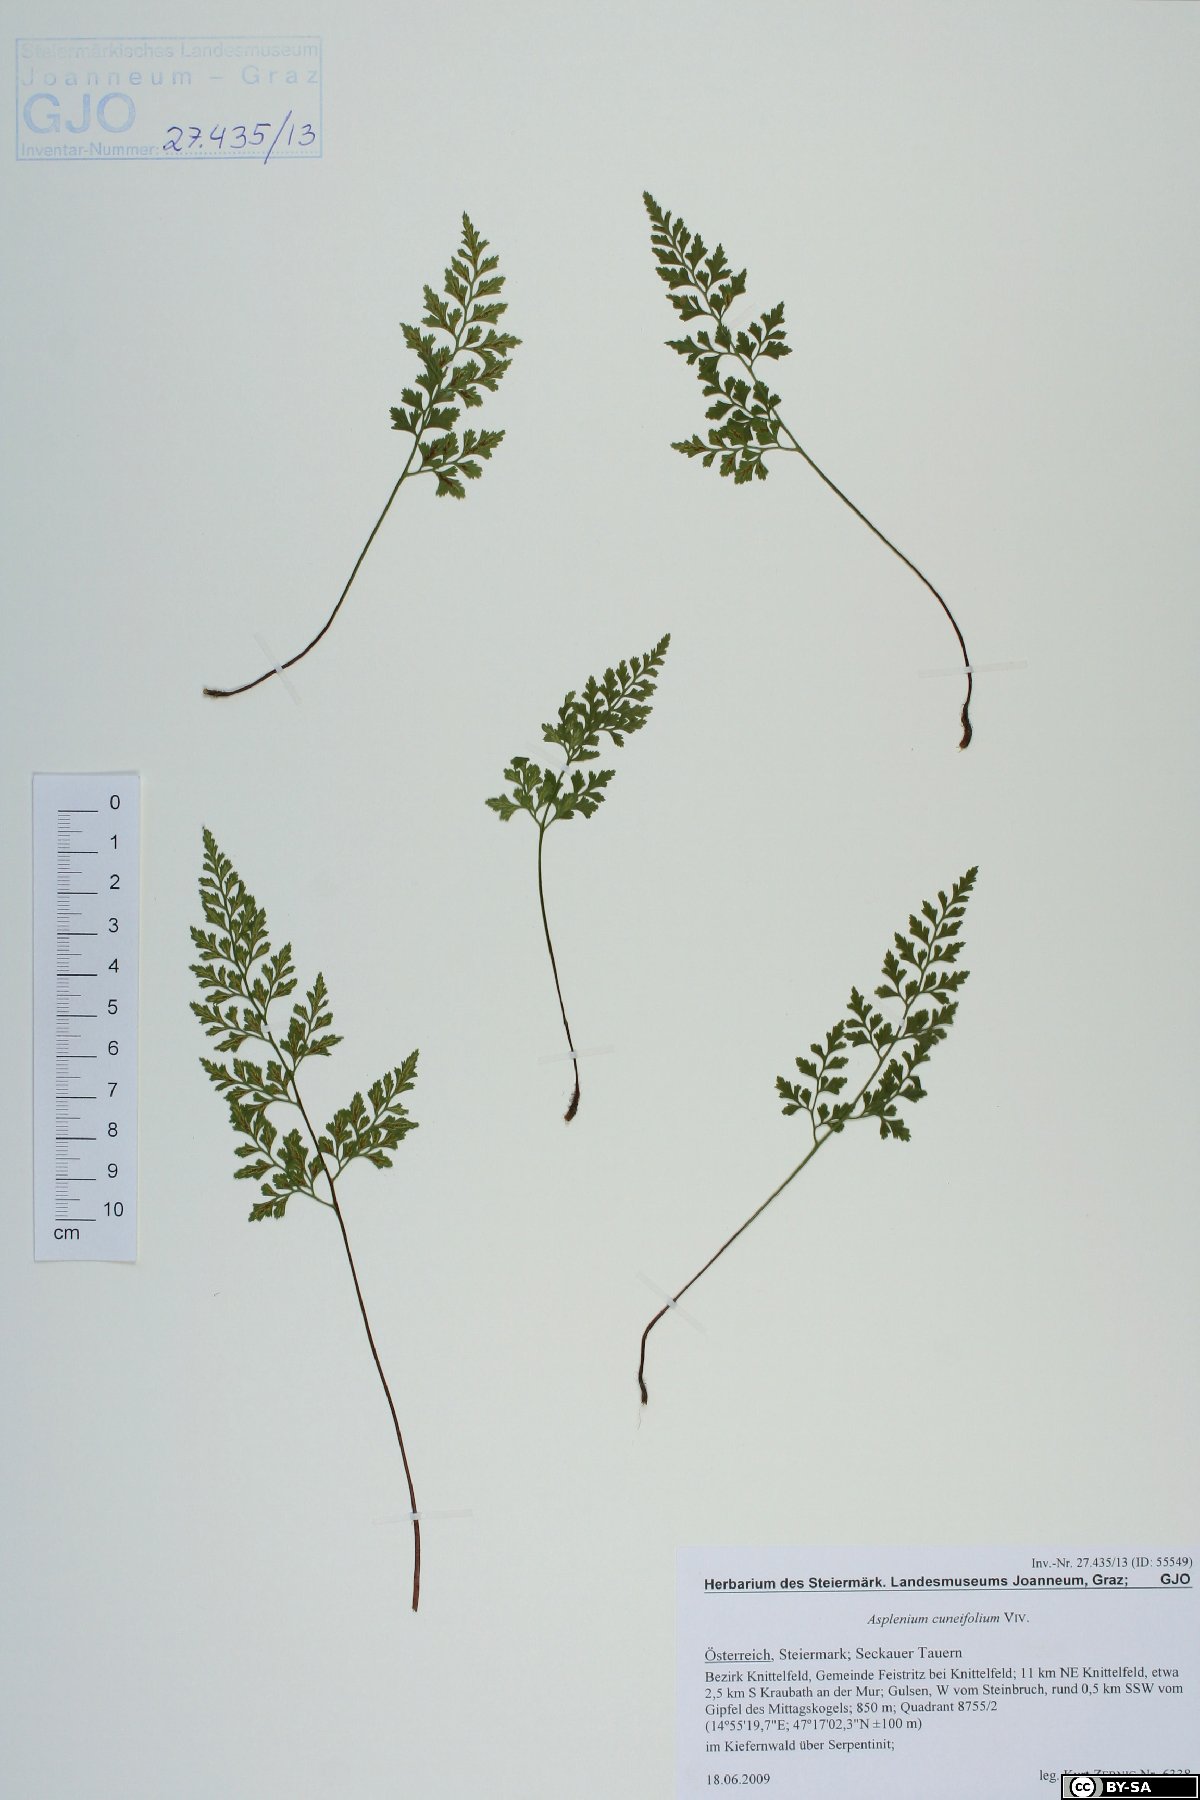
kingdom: Plantae
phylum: Tracheophyta
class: Polypodiopsida
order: Polypodiales
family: Aspleniaceae
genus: Asplenium
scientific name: Asplenium cuneifolium
